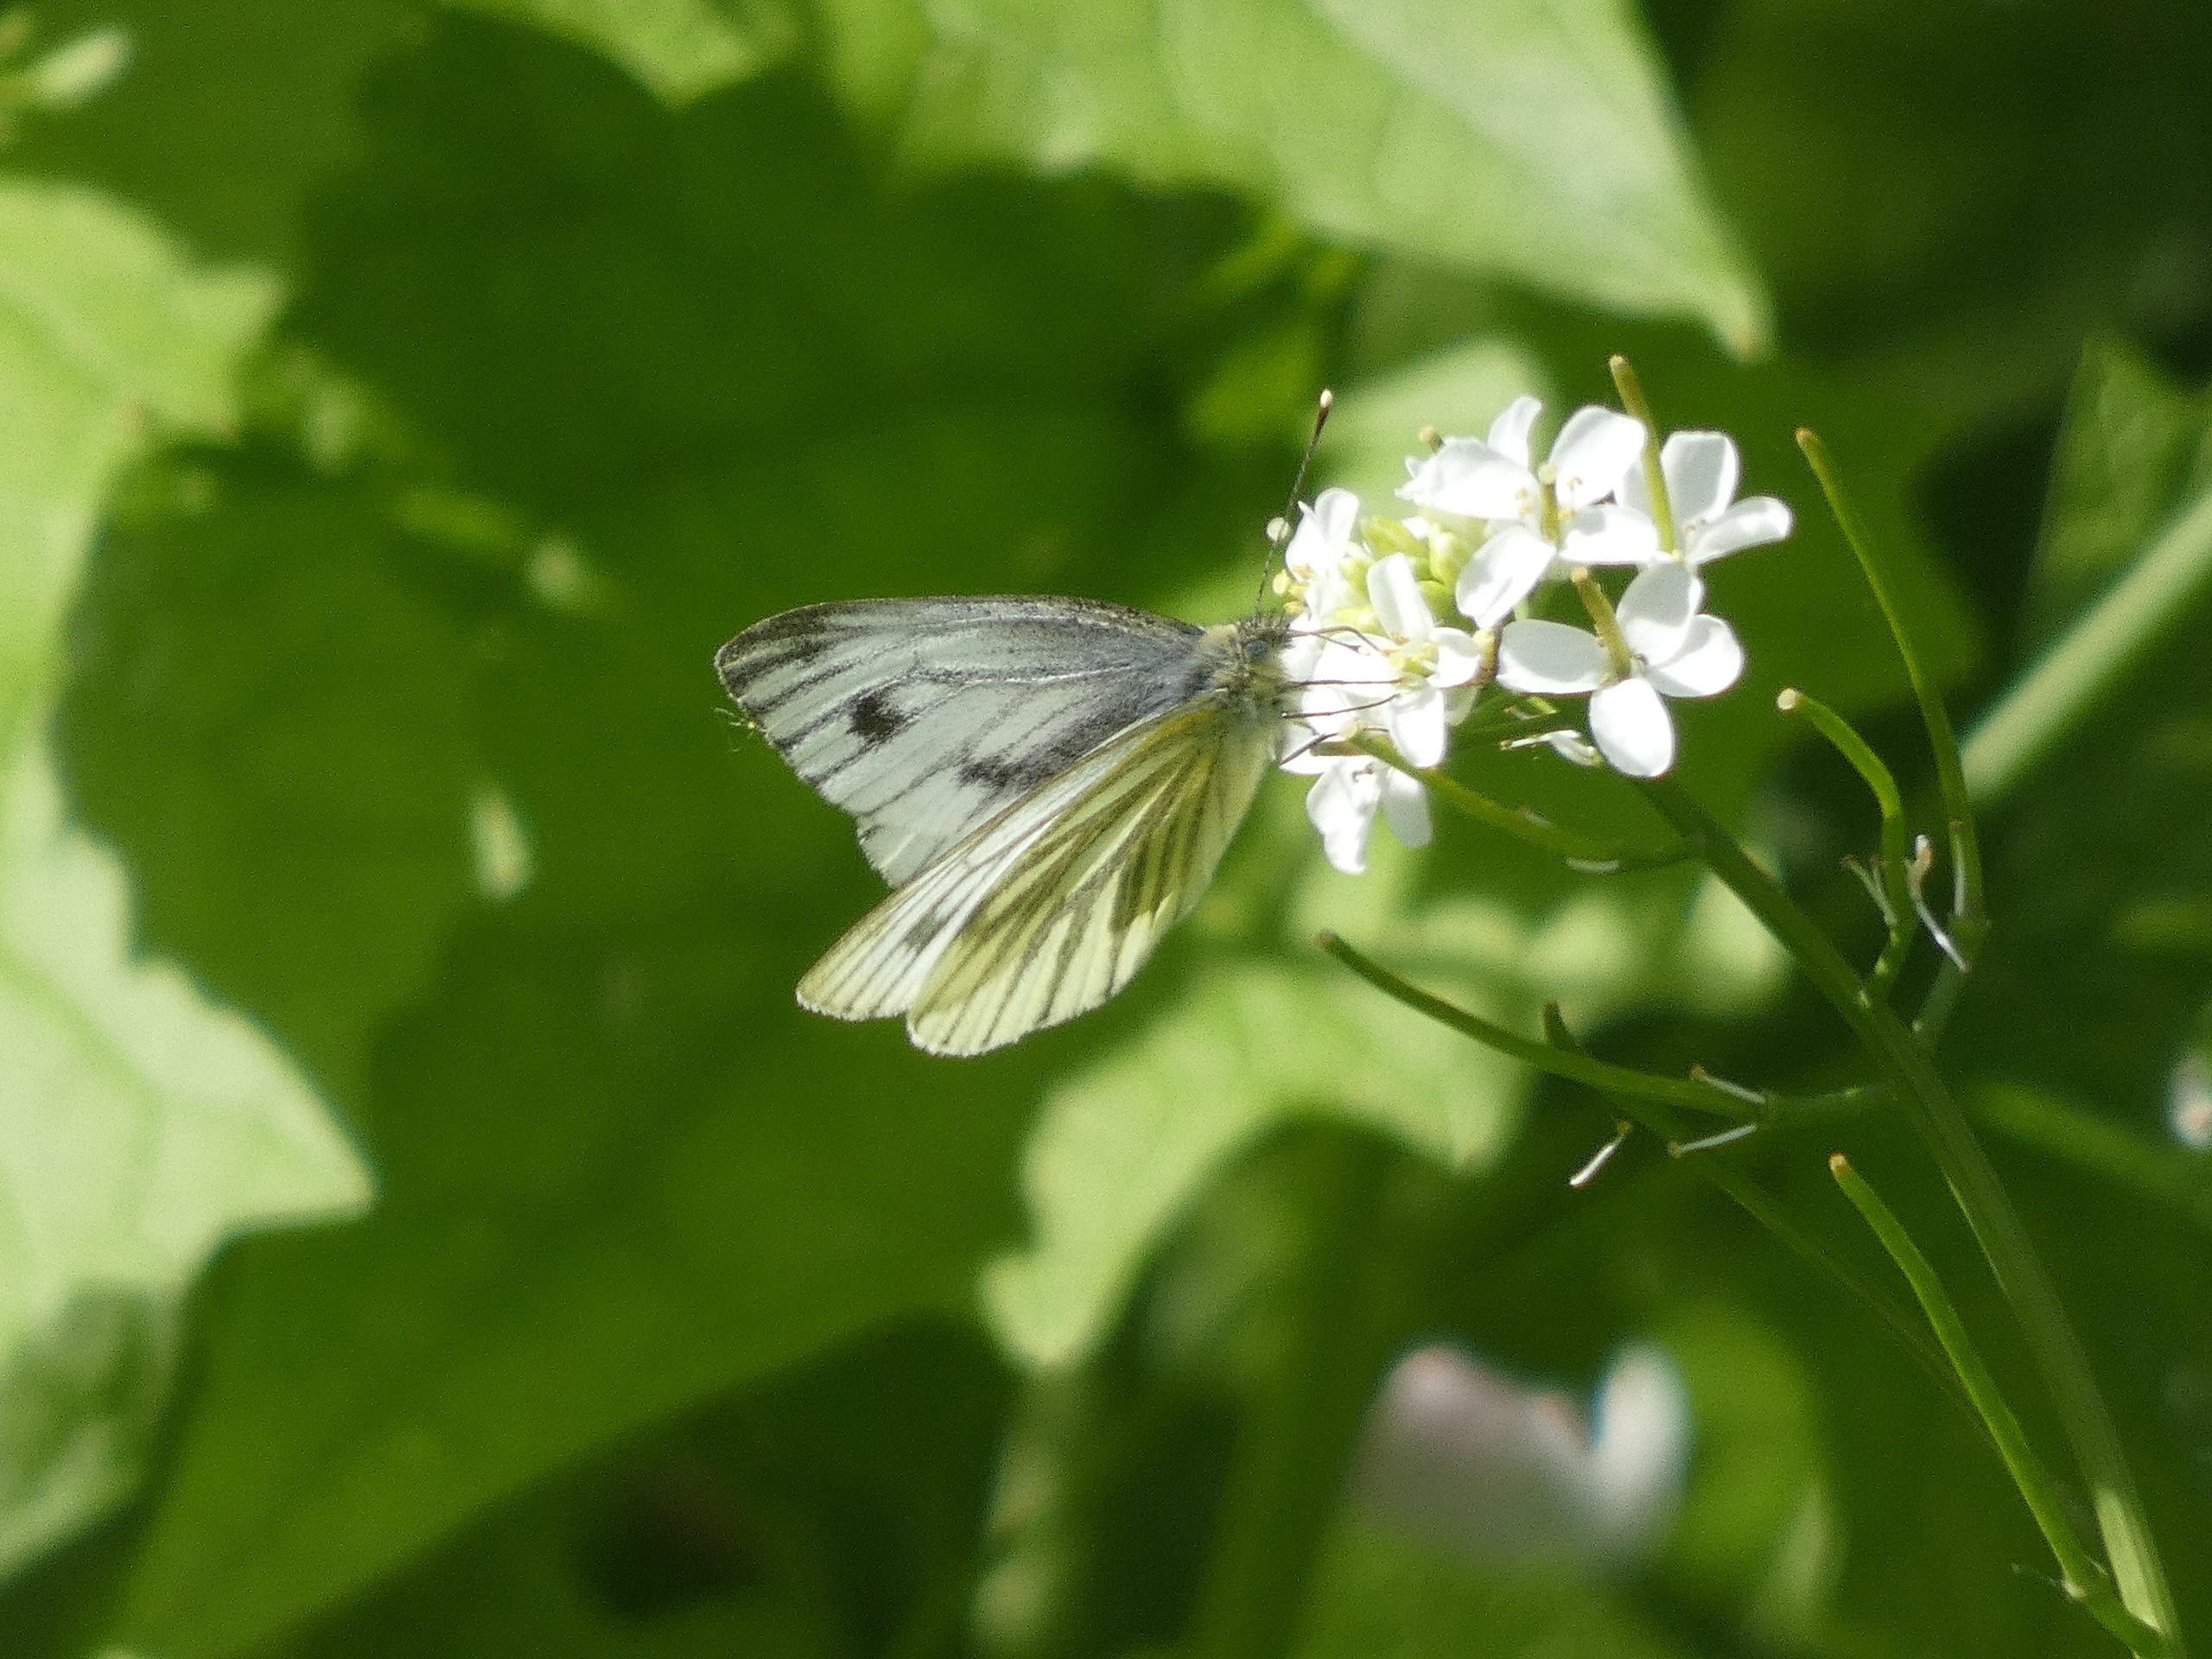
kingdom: Animalia
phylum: Arthropoda
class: Insecta
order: Lepidoptera
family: Pieridae
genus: Pieris
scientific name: Pieris napi
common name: Grønåret kålsommerfugl
